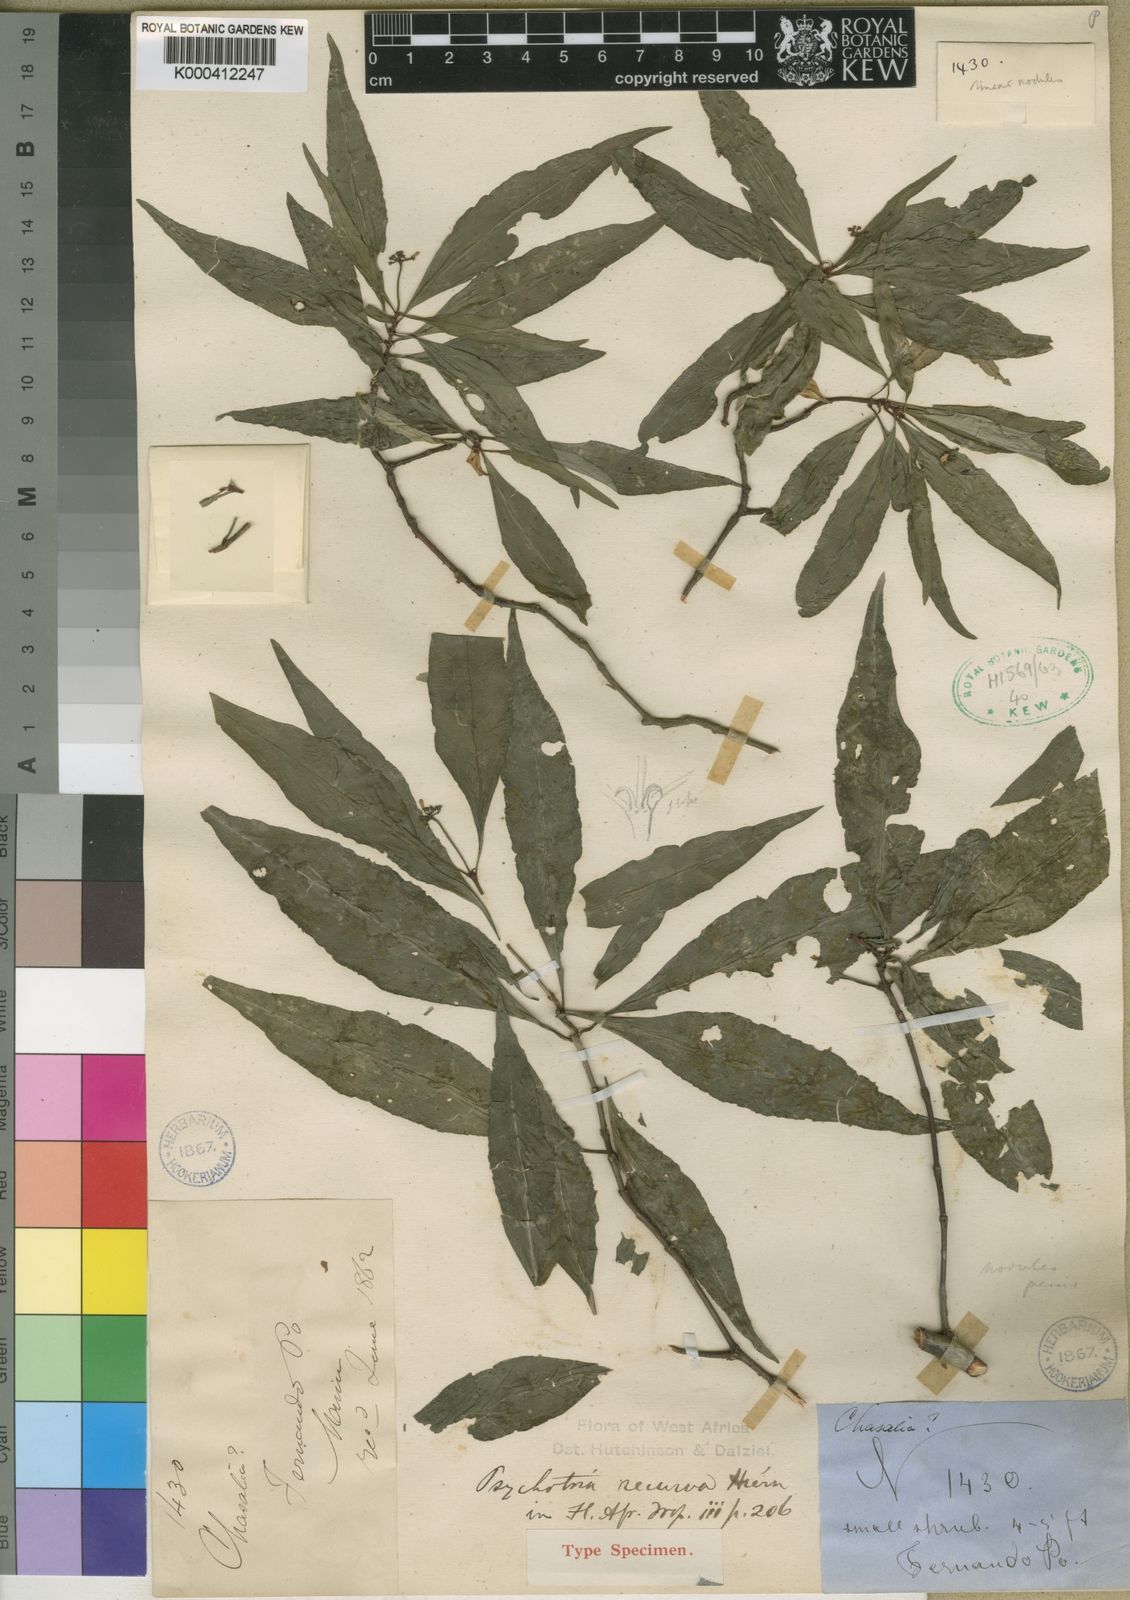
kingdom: Plantae
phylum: Tracheophyta
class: Magnoliopsida
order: Gentianales
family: Rubiaceae
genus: Psychotria
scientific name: Psychotria recurva
